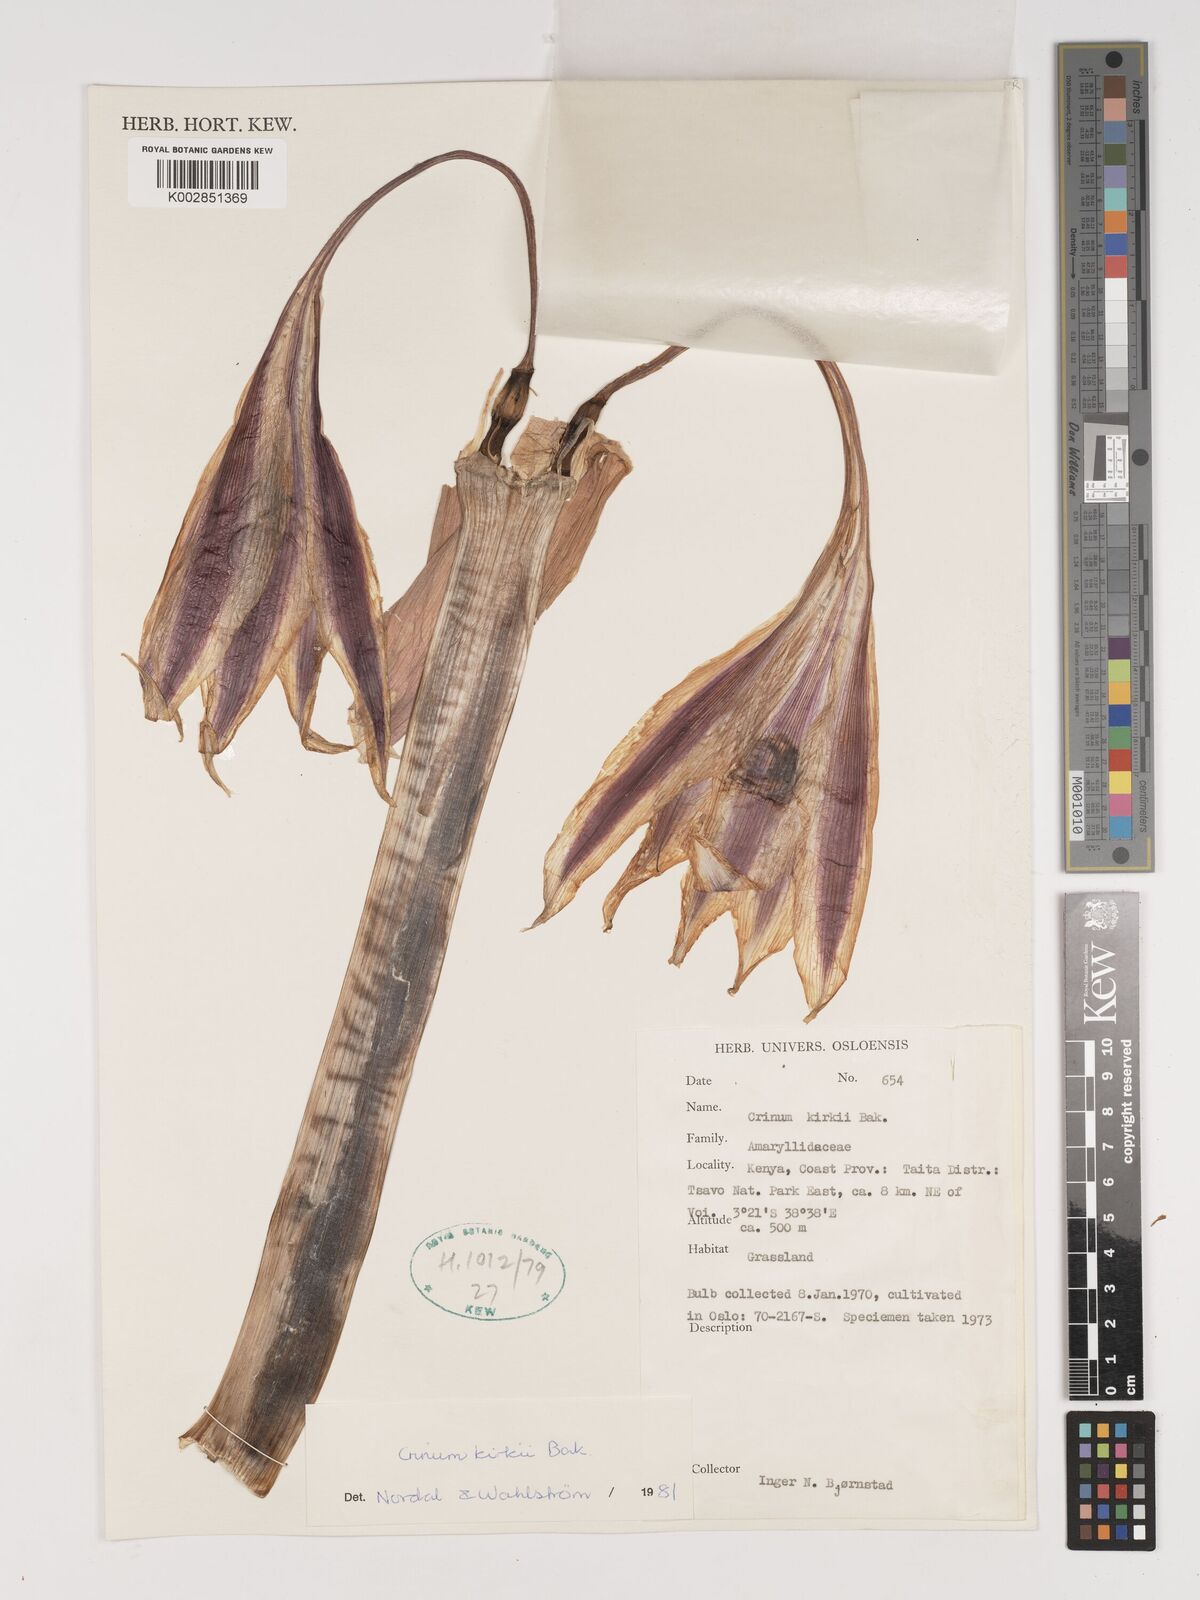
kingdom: Plantae
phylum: Tracheophyta
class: Liliopsida
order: Asparagales
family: Amaryllidaceae
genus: Crinum
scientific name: Crinum kirkii
